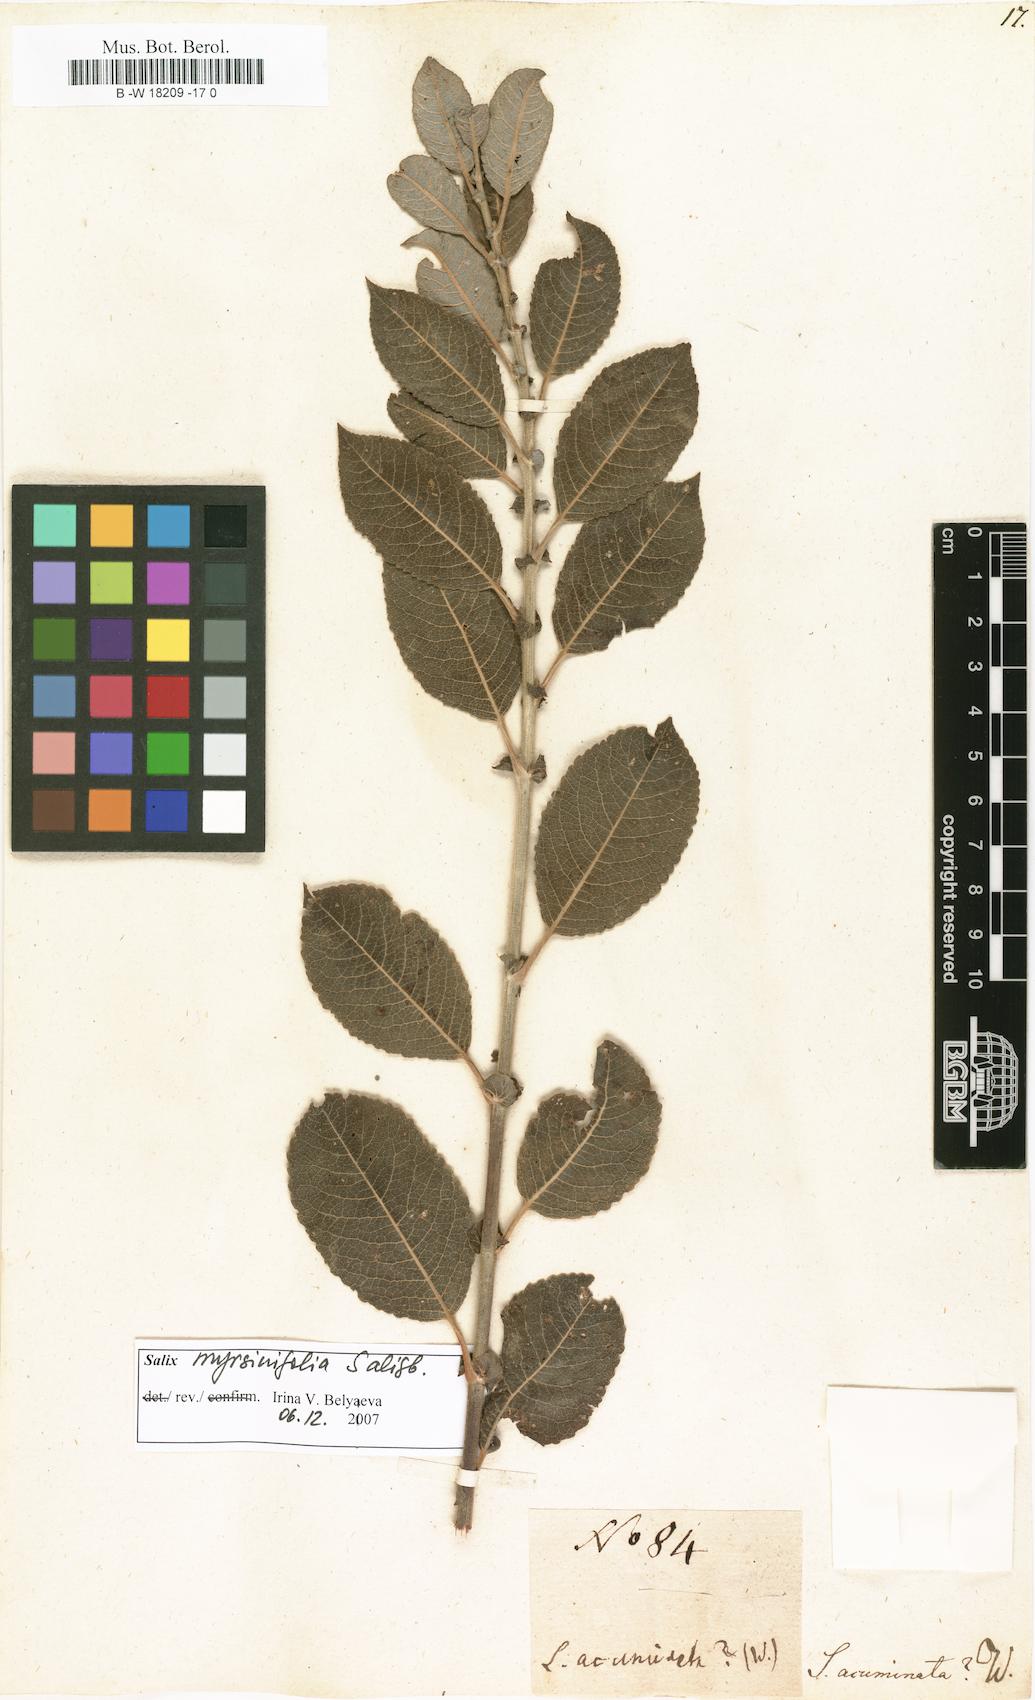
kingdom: Plantae
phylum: Tracheophyta
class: Magnoliopsida
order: Malpighiales
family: Salicaceae
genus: Salix
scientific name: Salix
